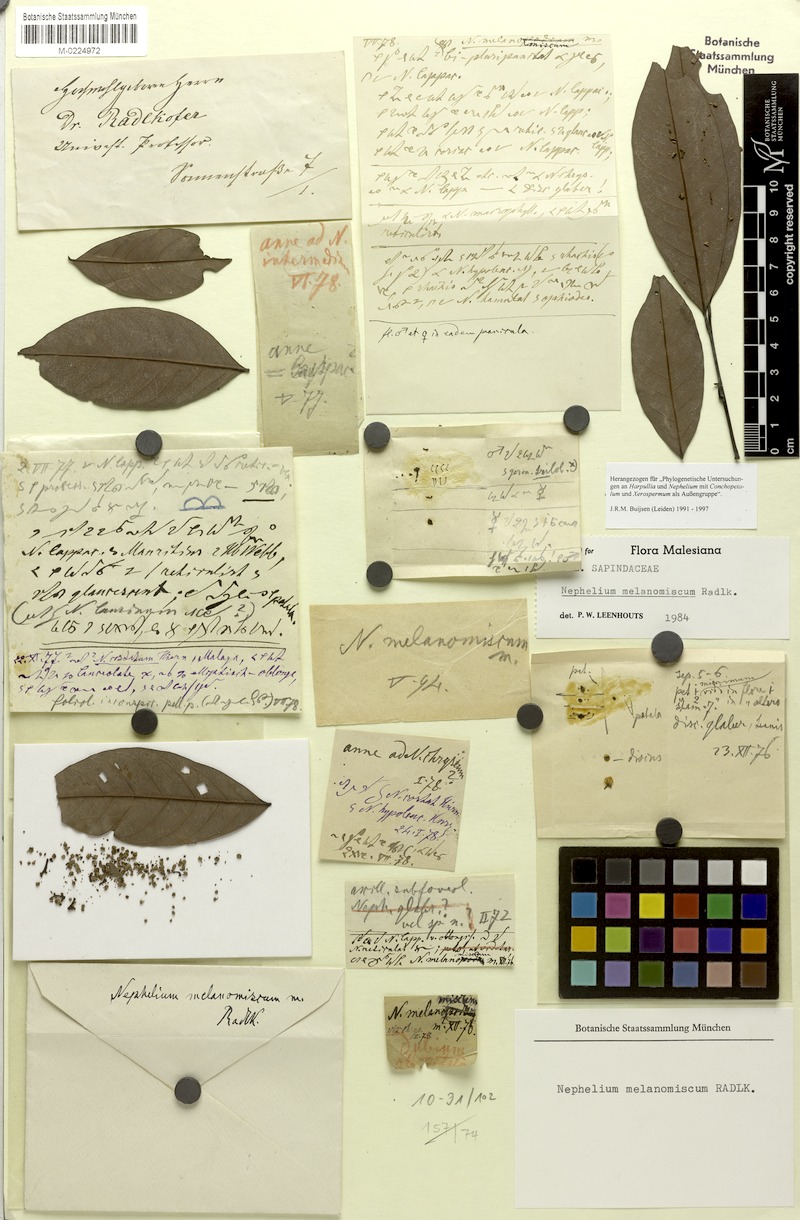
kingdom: Plantae
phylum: Tracheophyta
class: Magnoliopsida
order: Sapindales
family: Sapindaceae
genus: Nephelium
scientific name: Nephelium melanomiscum
